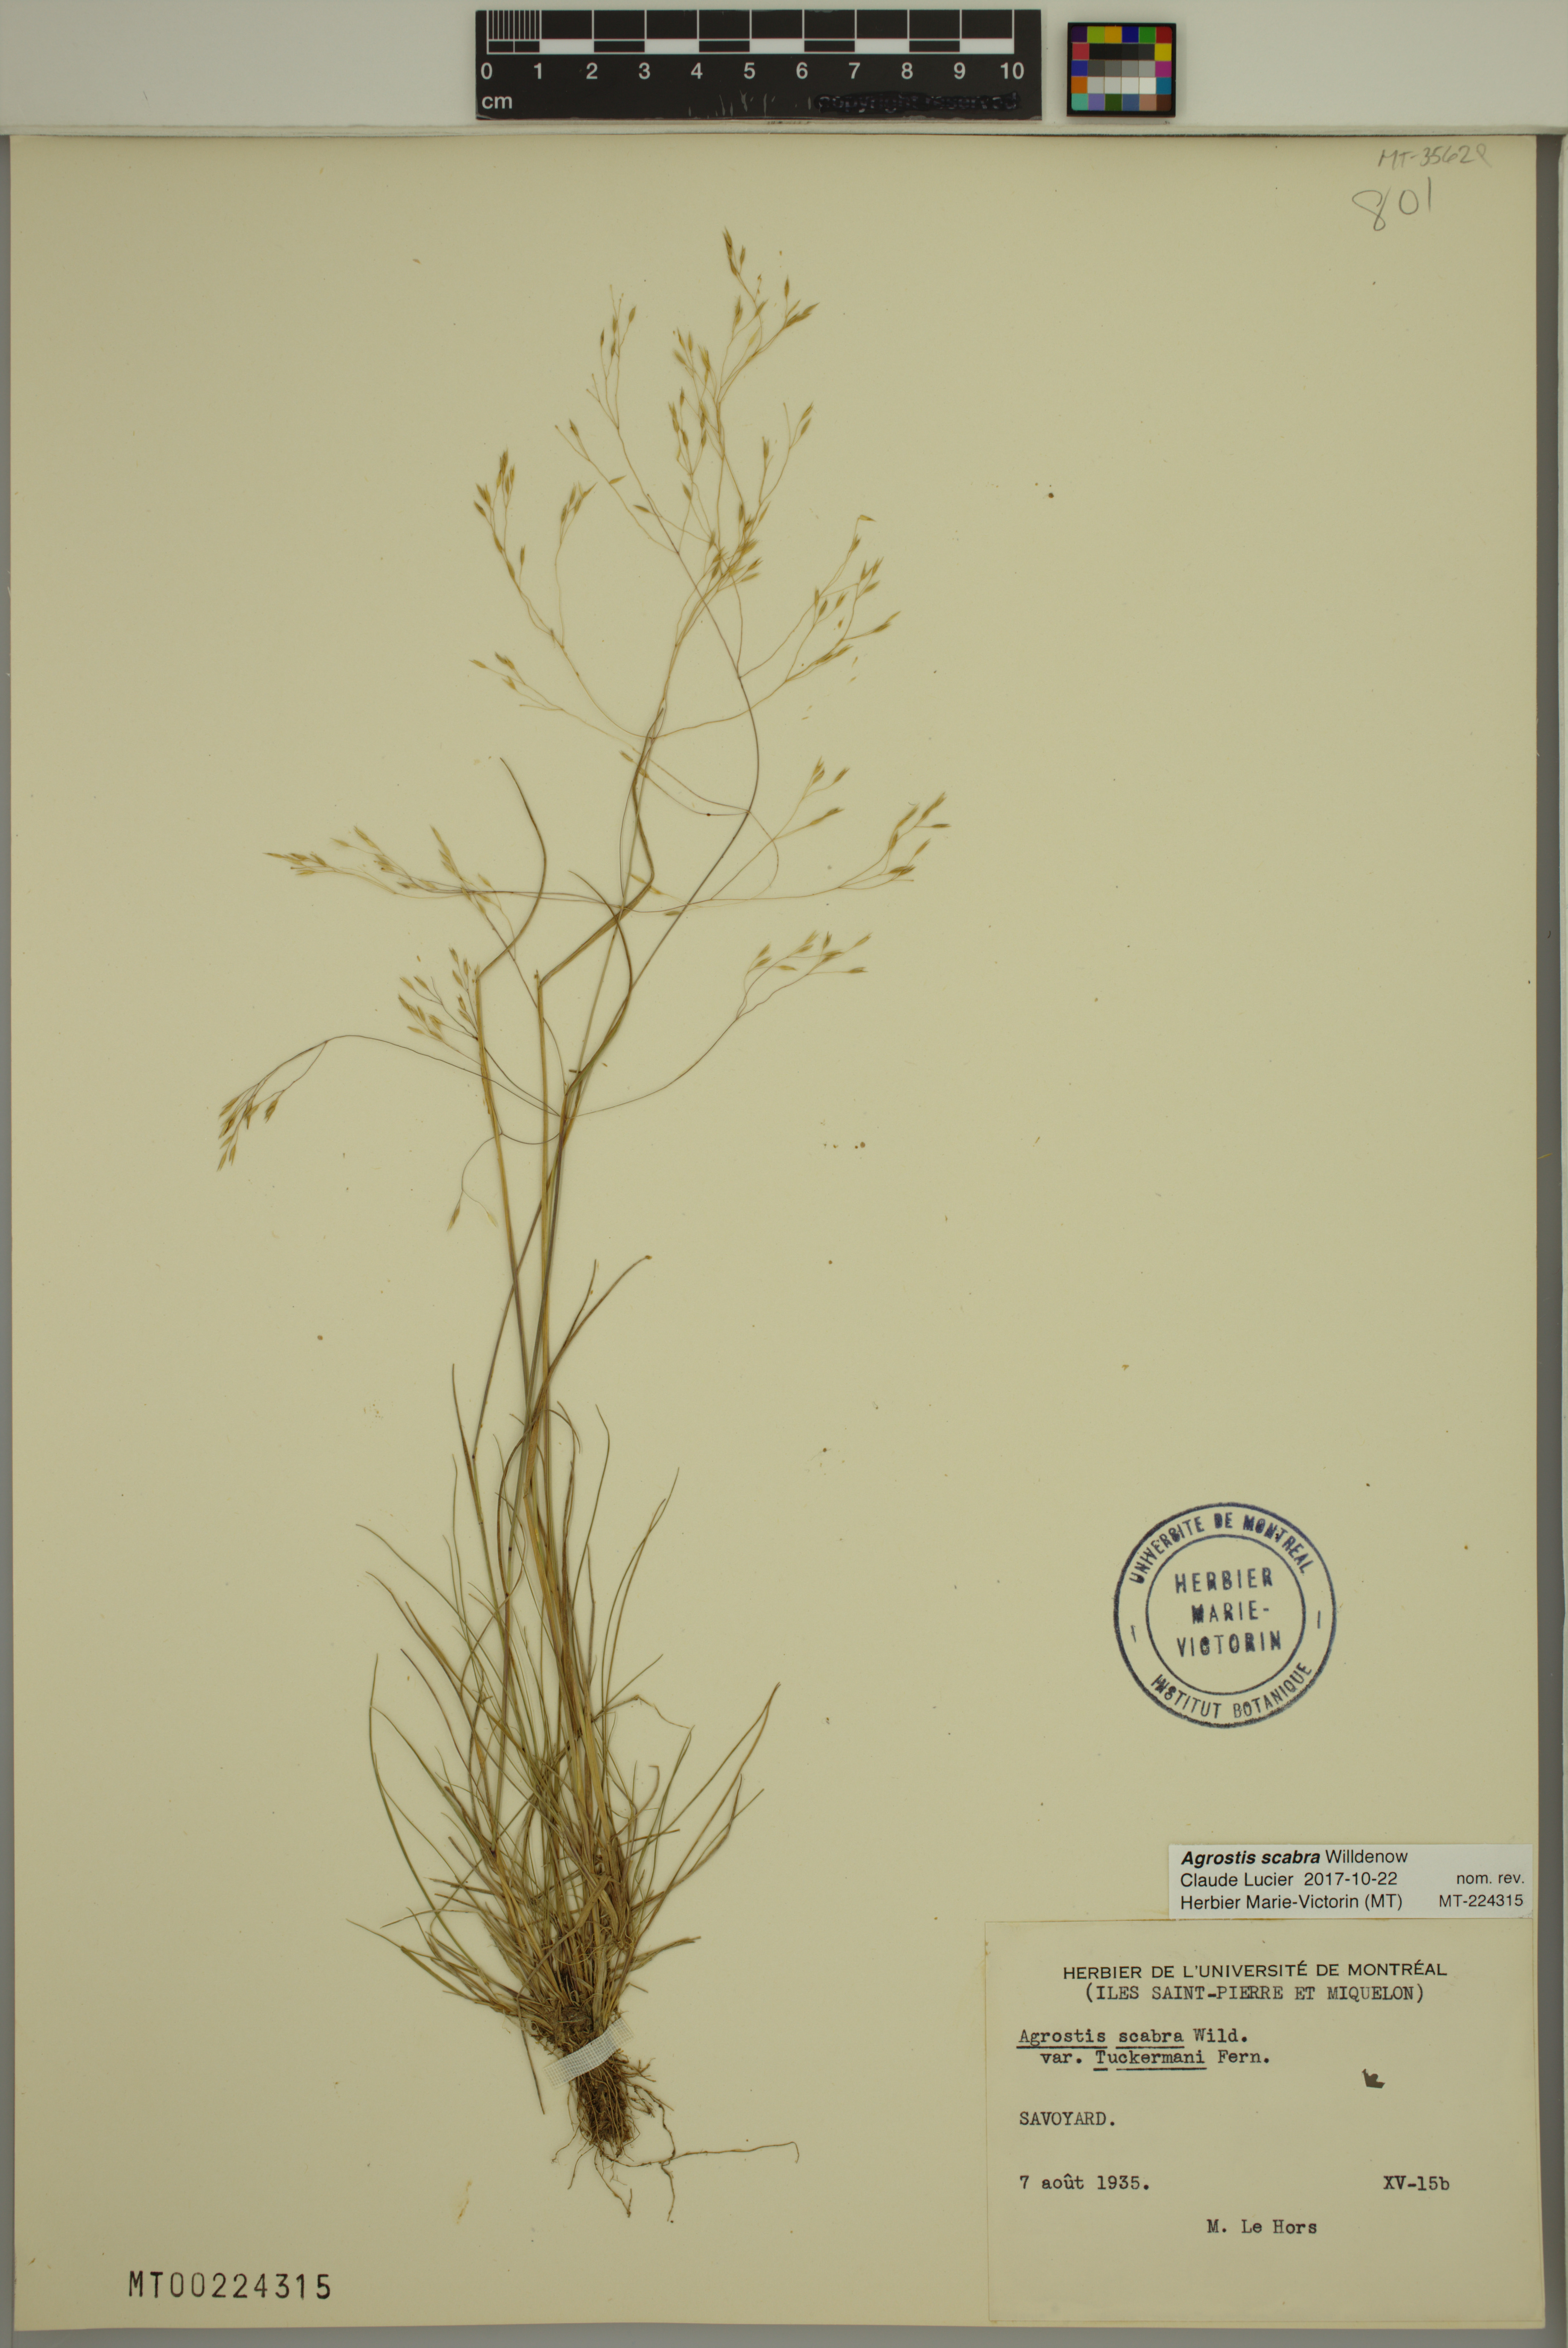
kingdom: Plantae
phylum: Tracheophyta
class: Liliopsida
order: Poales
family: Poaceae
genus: Agrostis
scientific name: Agrostis scabra
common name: Rough bent
